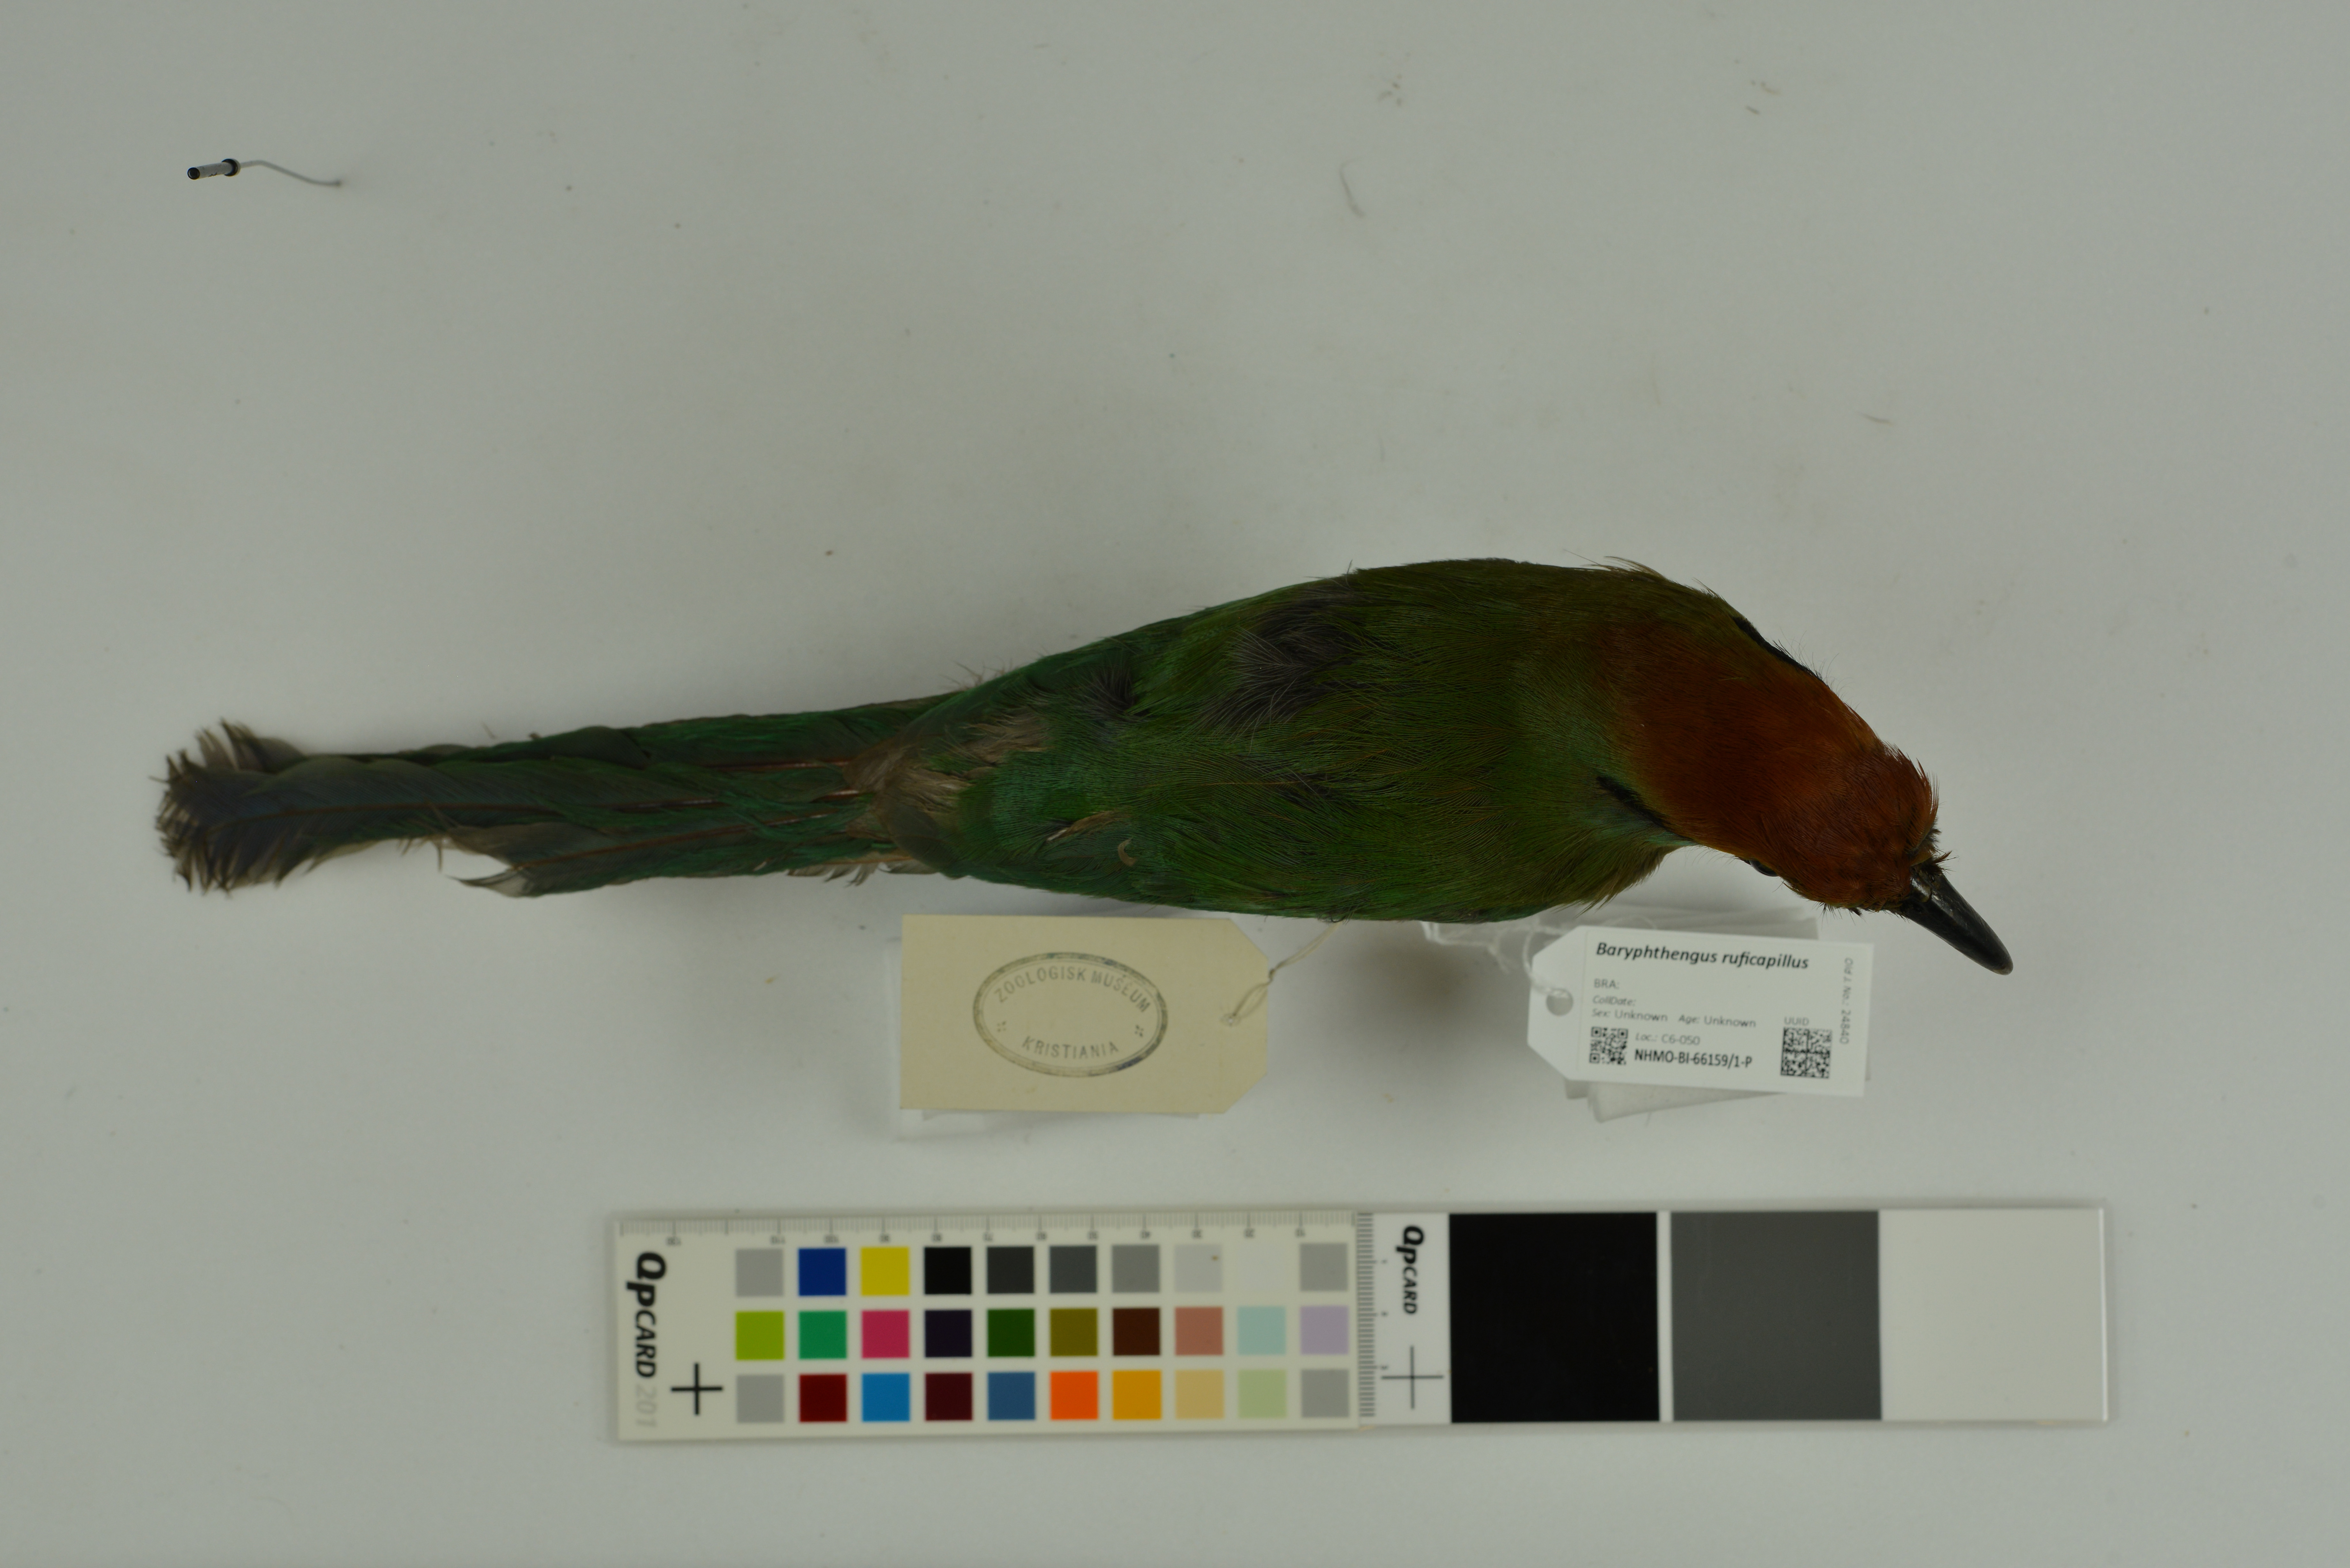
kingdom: Animalia
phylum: Chordata
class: Aves
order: Coraciiformes
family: Momotidae
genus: Baryphthengus
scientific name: Baryphthengus ruficapillus
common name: Rufous-capped motmot
